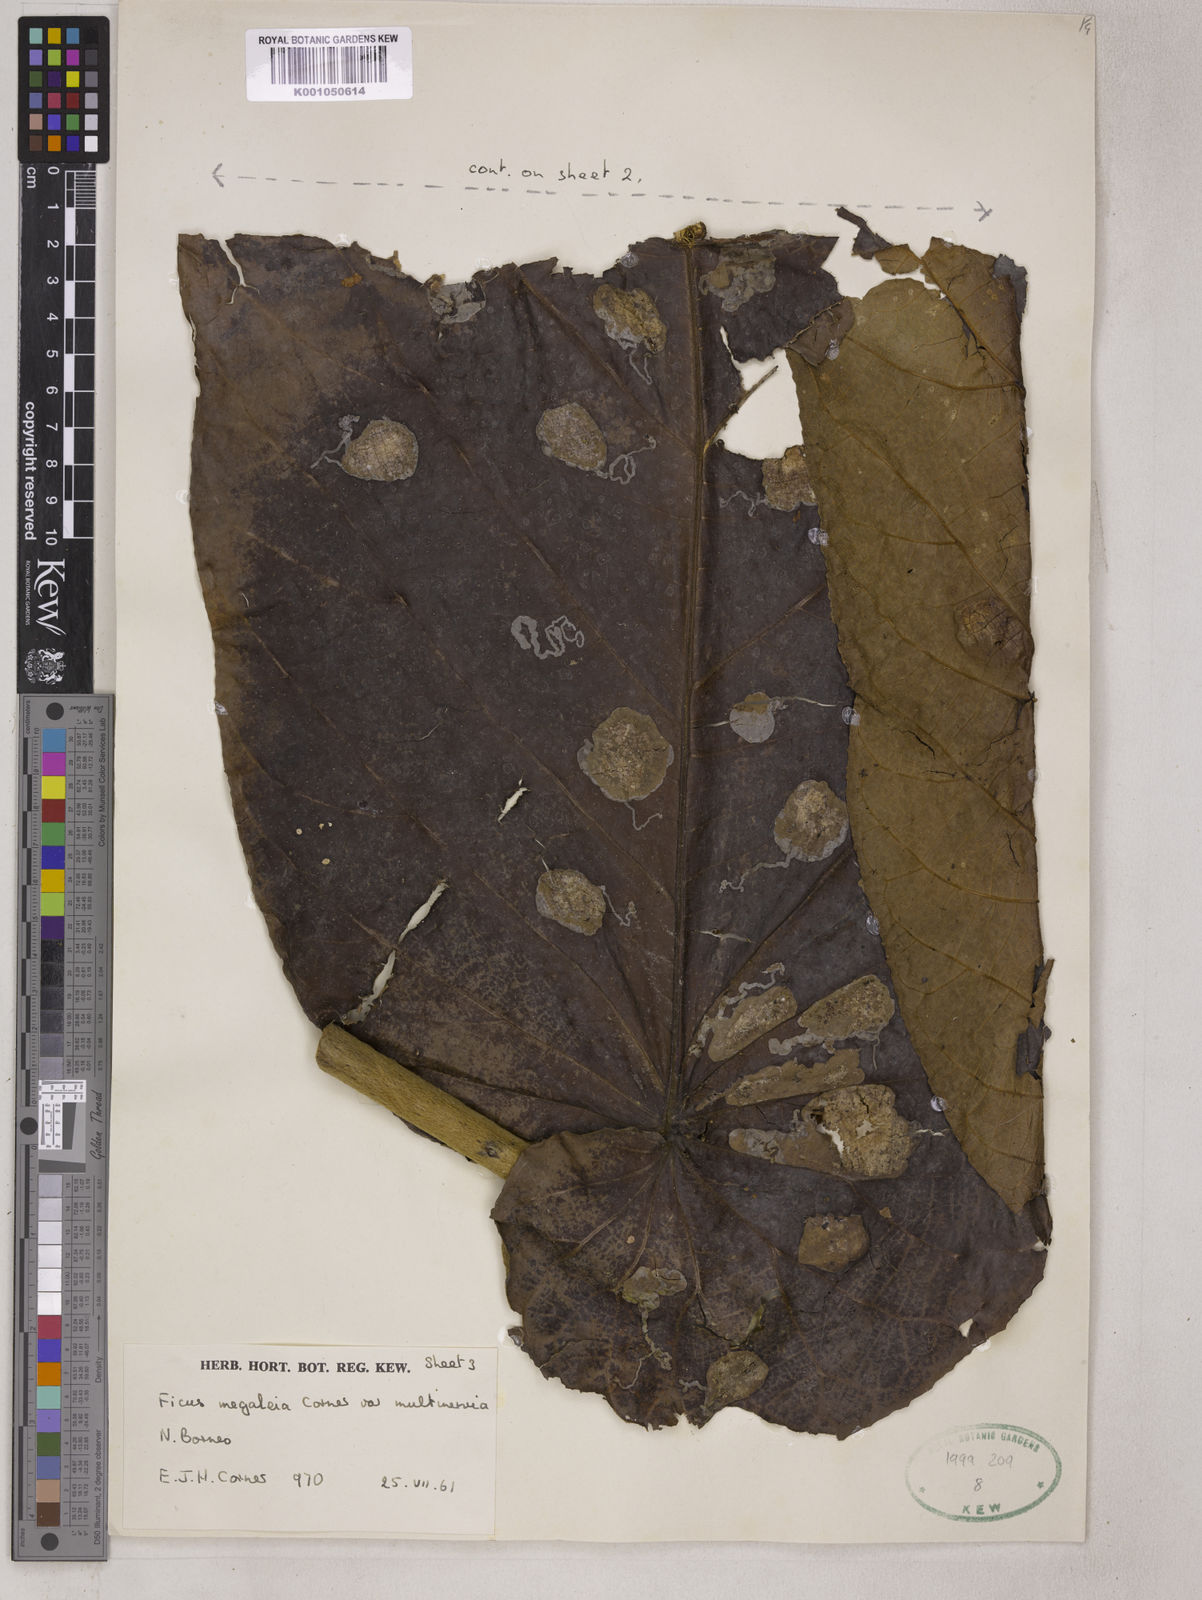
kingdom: Plantae
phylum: Tracheophyta
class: Magnoliopsida
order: Rosales
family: Moraceae
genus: Ficus
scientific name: Ficus megaleia
